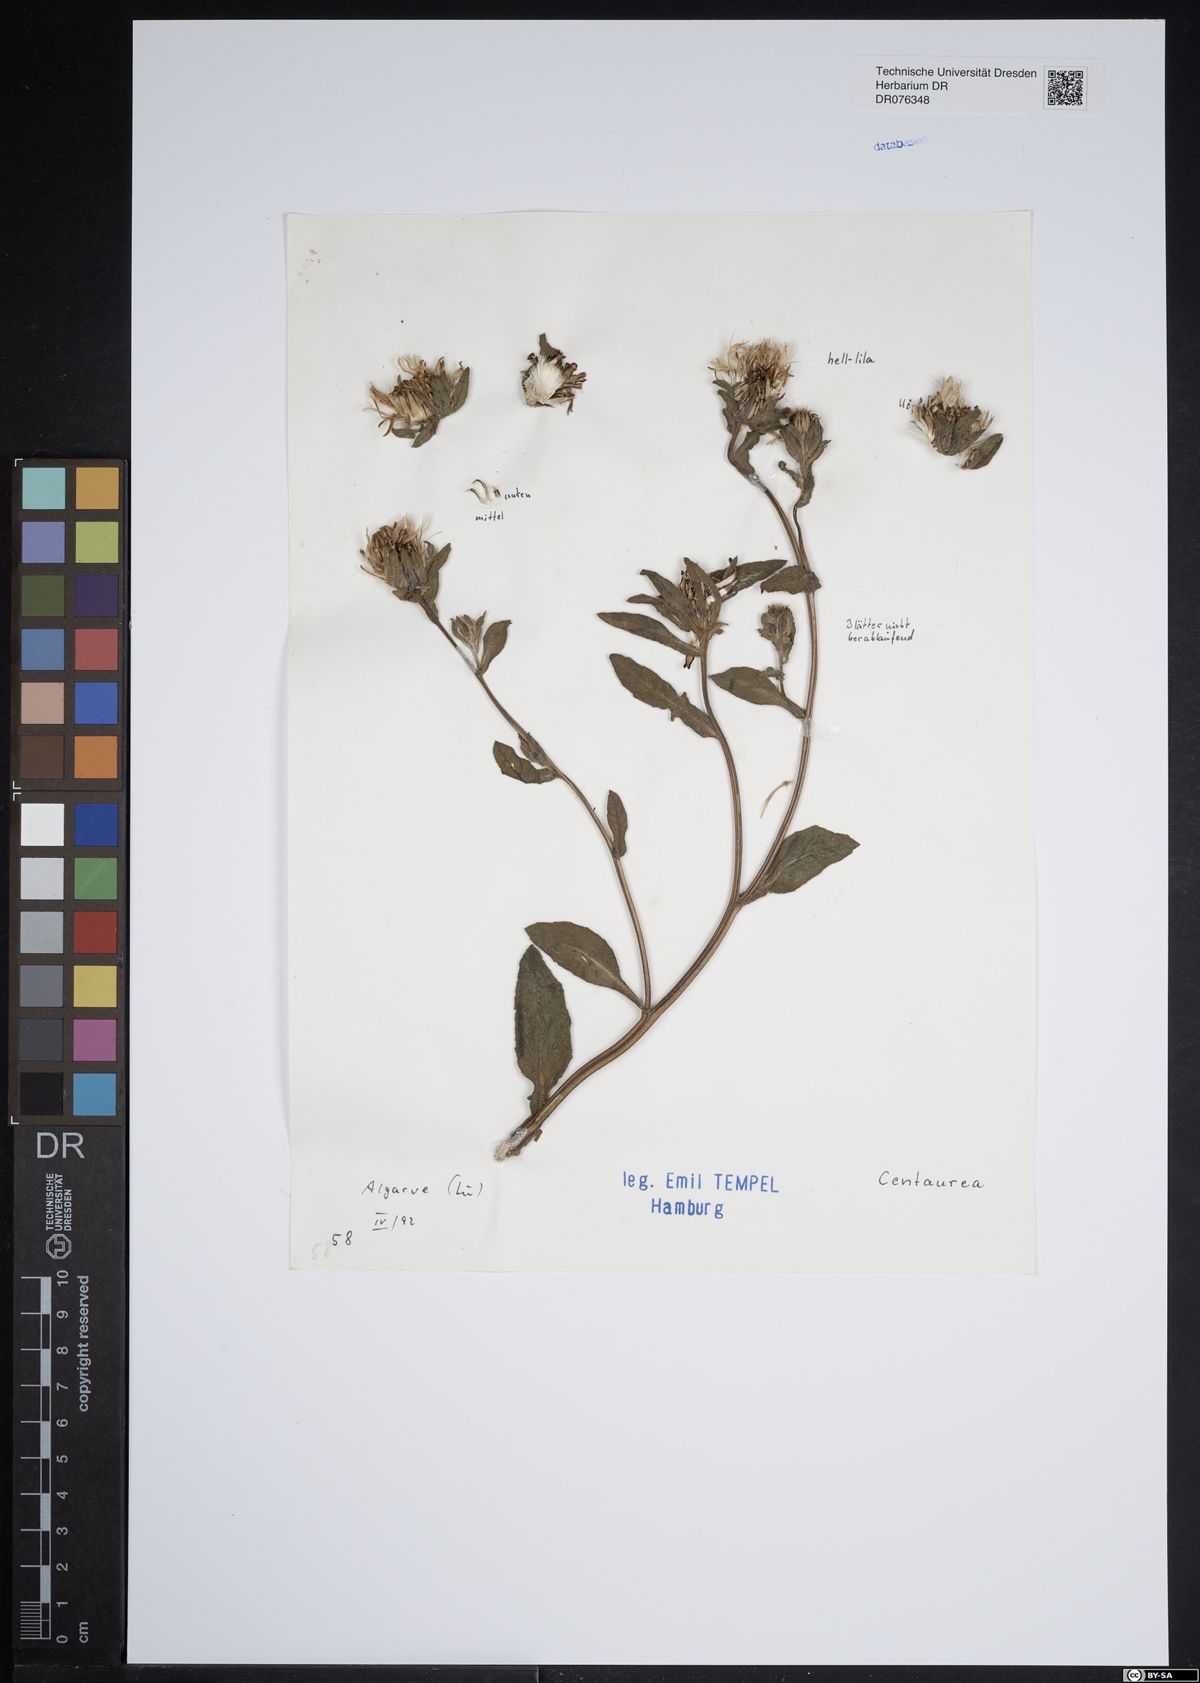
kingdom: Plantae
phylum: Tracheophyta
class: Magnoliopsida
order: Asterales
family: Asteraceae
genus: Centaurea
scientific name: Centaurea
